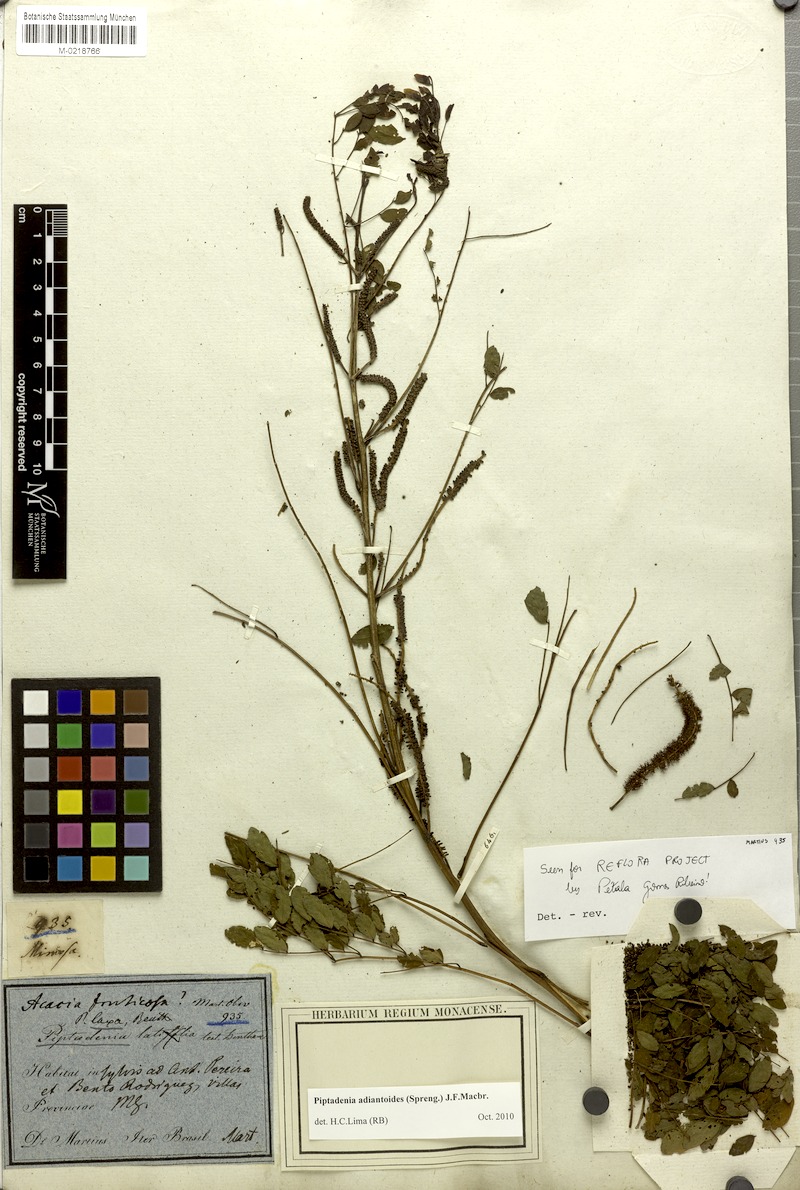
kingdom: Plantae
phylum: Tracheophyta
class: Magnoliopsida
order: Fabales
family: Fabaceae
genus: Piptadenia
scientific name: Piptadenia adiantoides
